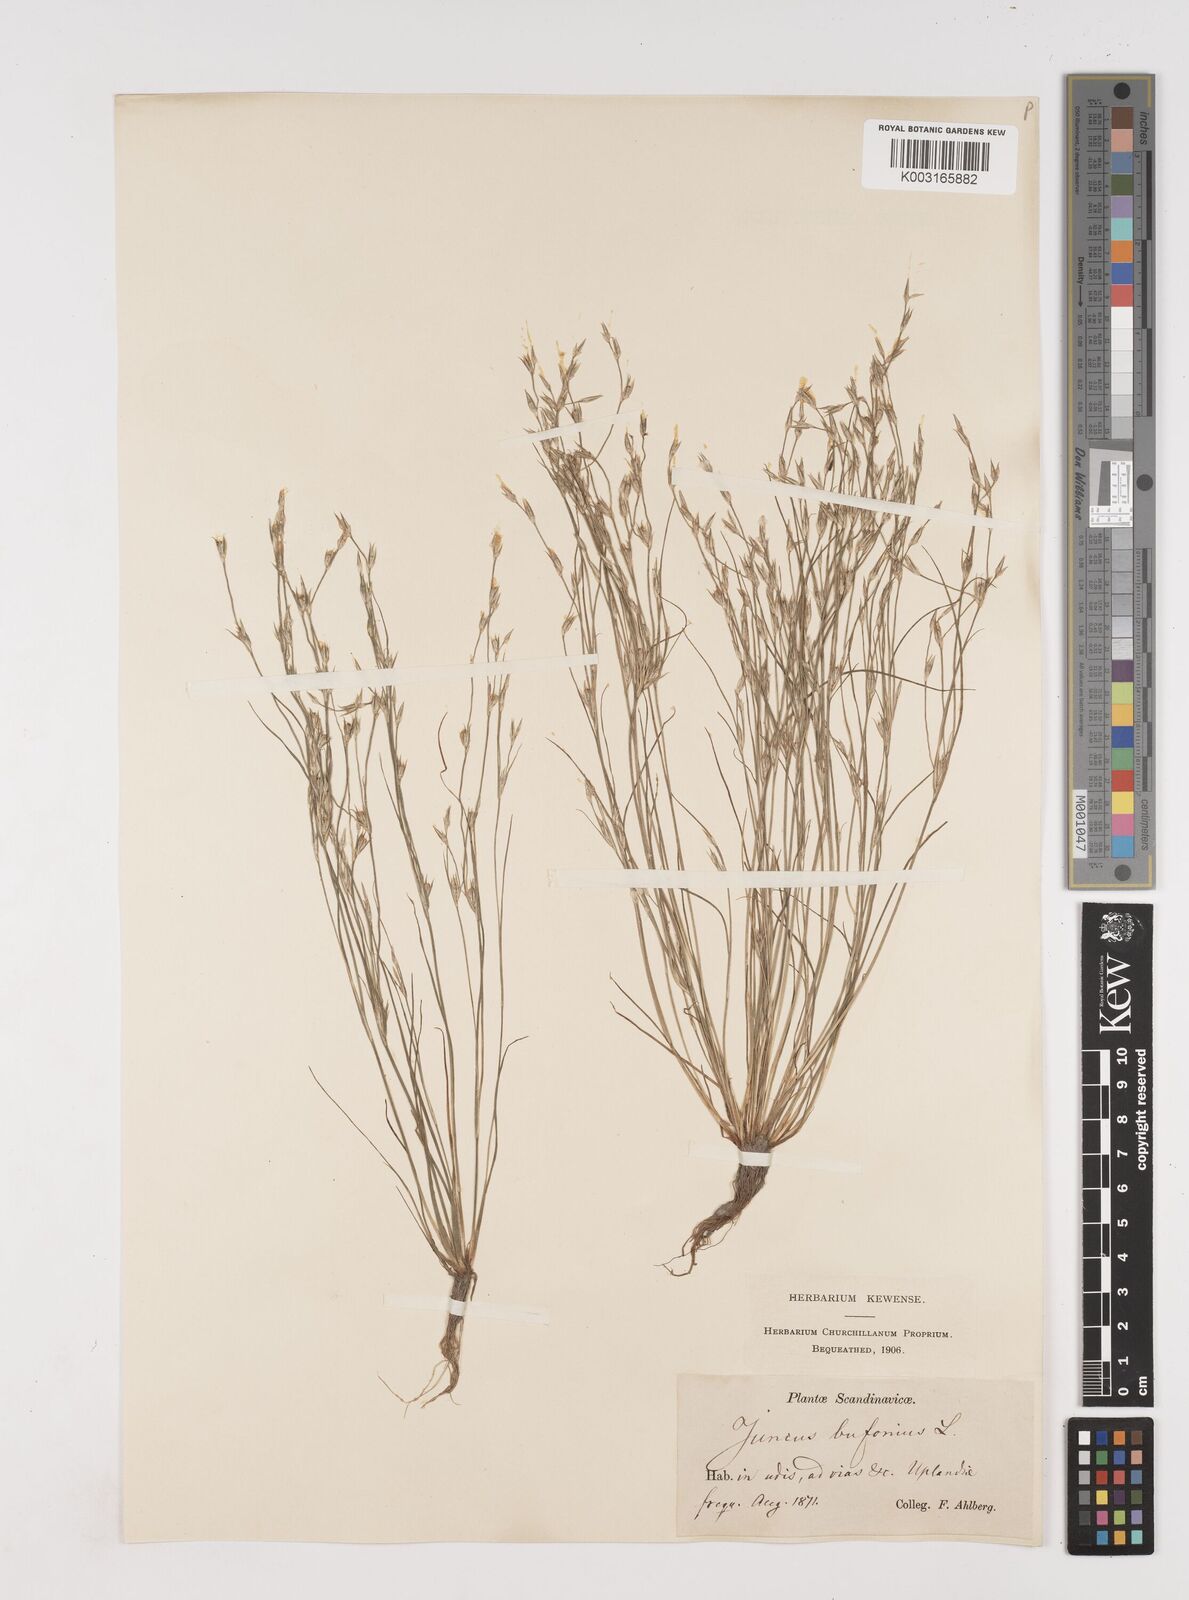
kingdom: Plantae
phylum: Tracheophyta
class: Liliopsida
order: Poales
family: Juncaceae
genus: Juncus
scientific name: Juncus bufonius
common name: Toad rush
